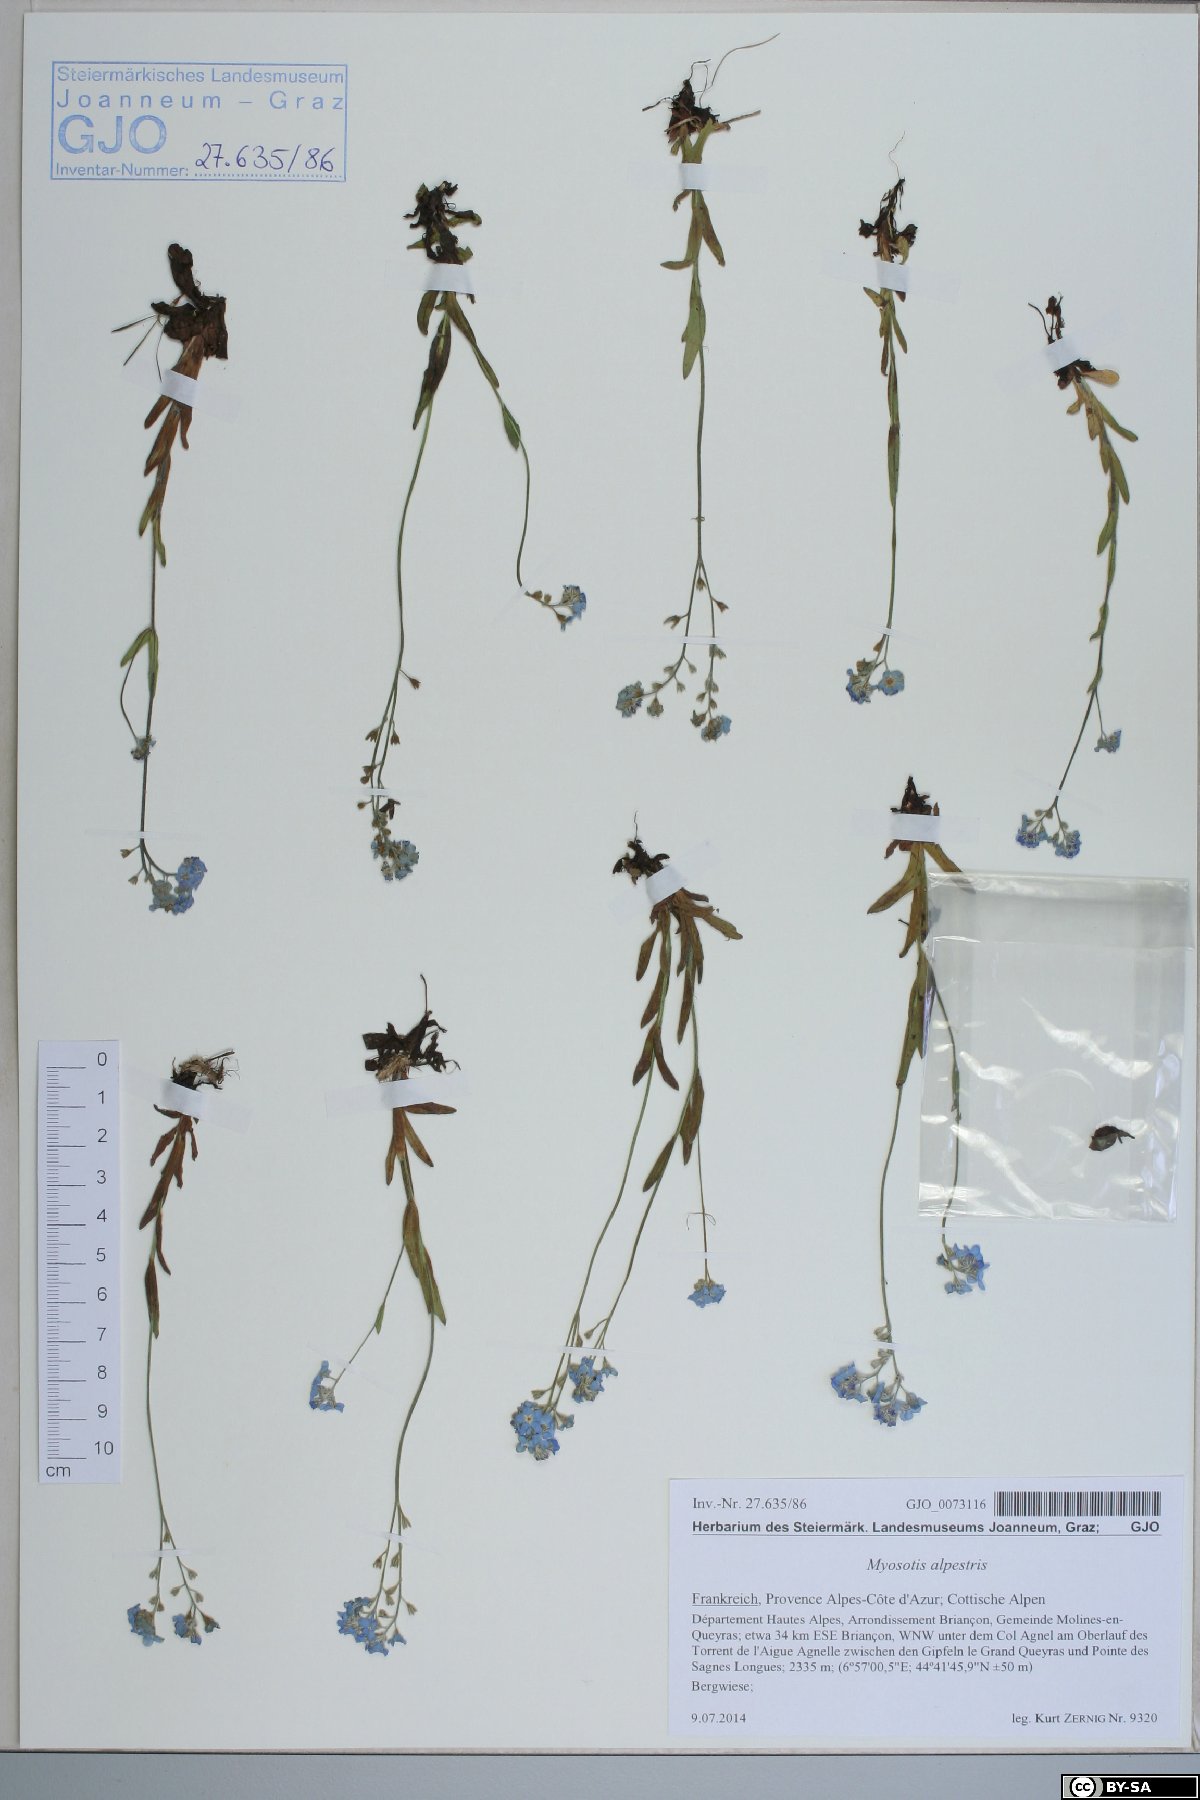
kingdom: Plantae
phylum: Tracheophyta
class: Magnoliopsida
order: Boraginales
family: Boraginaceae
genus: Myosotis
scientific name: Myosotis alpestris
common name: Alpine forget-me-not
